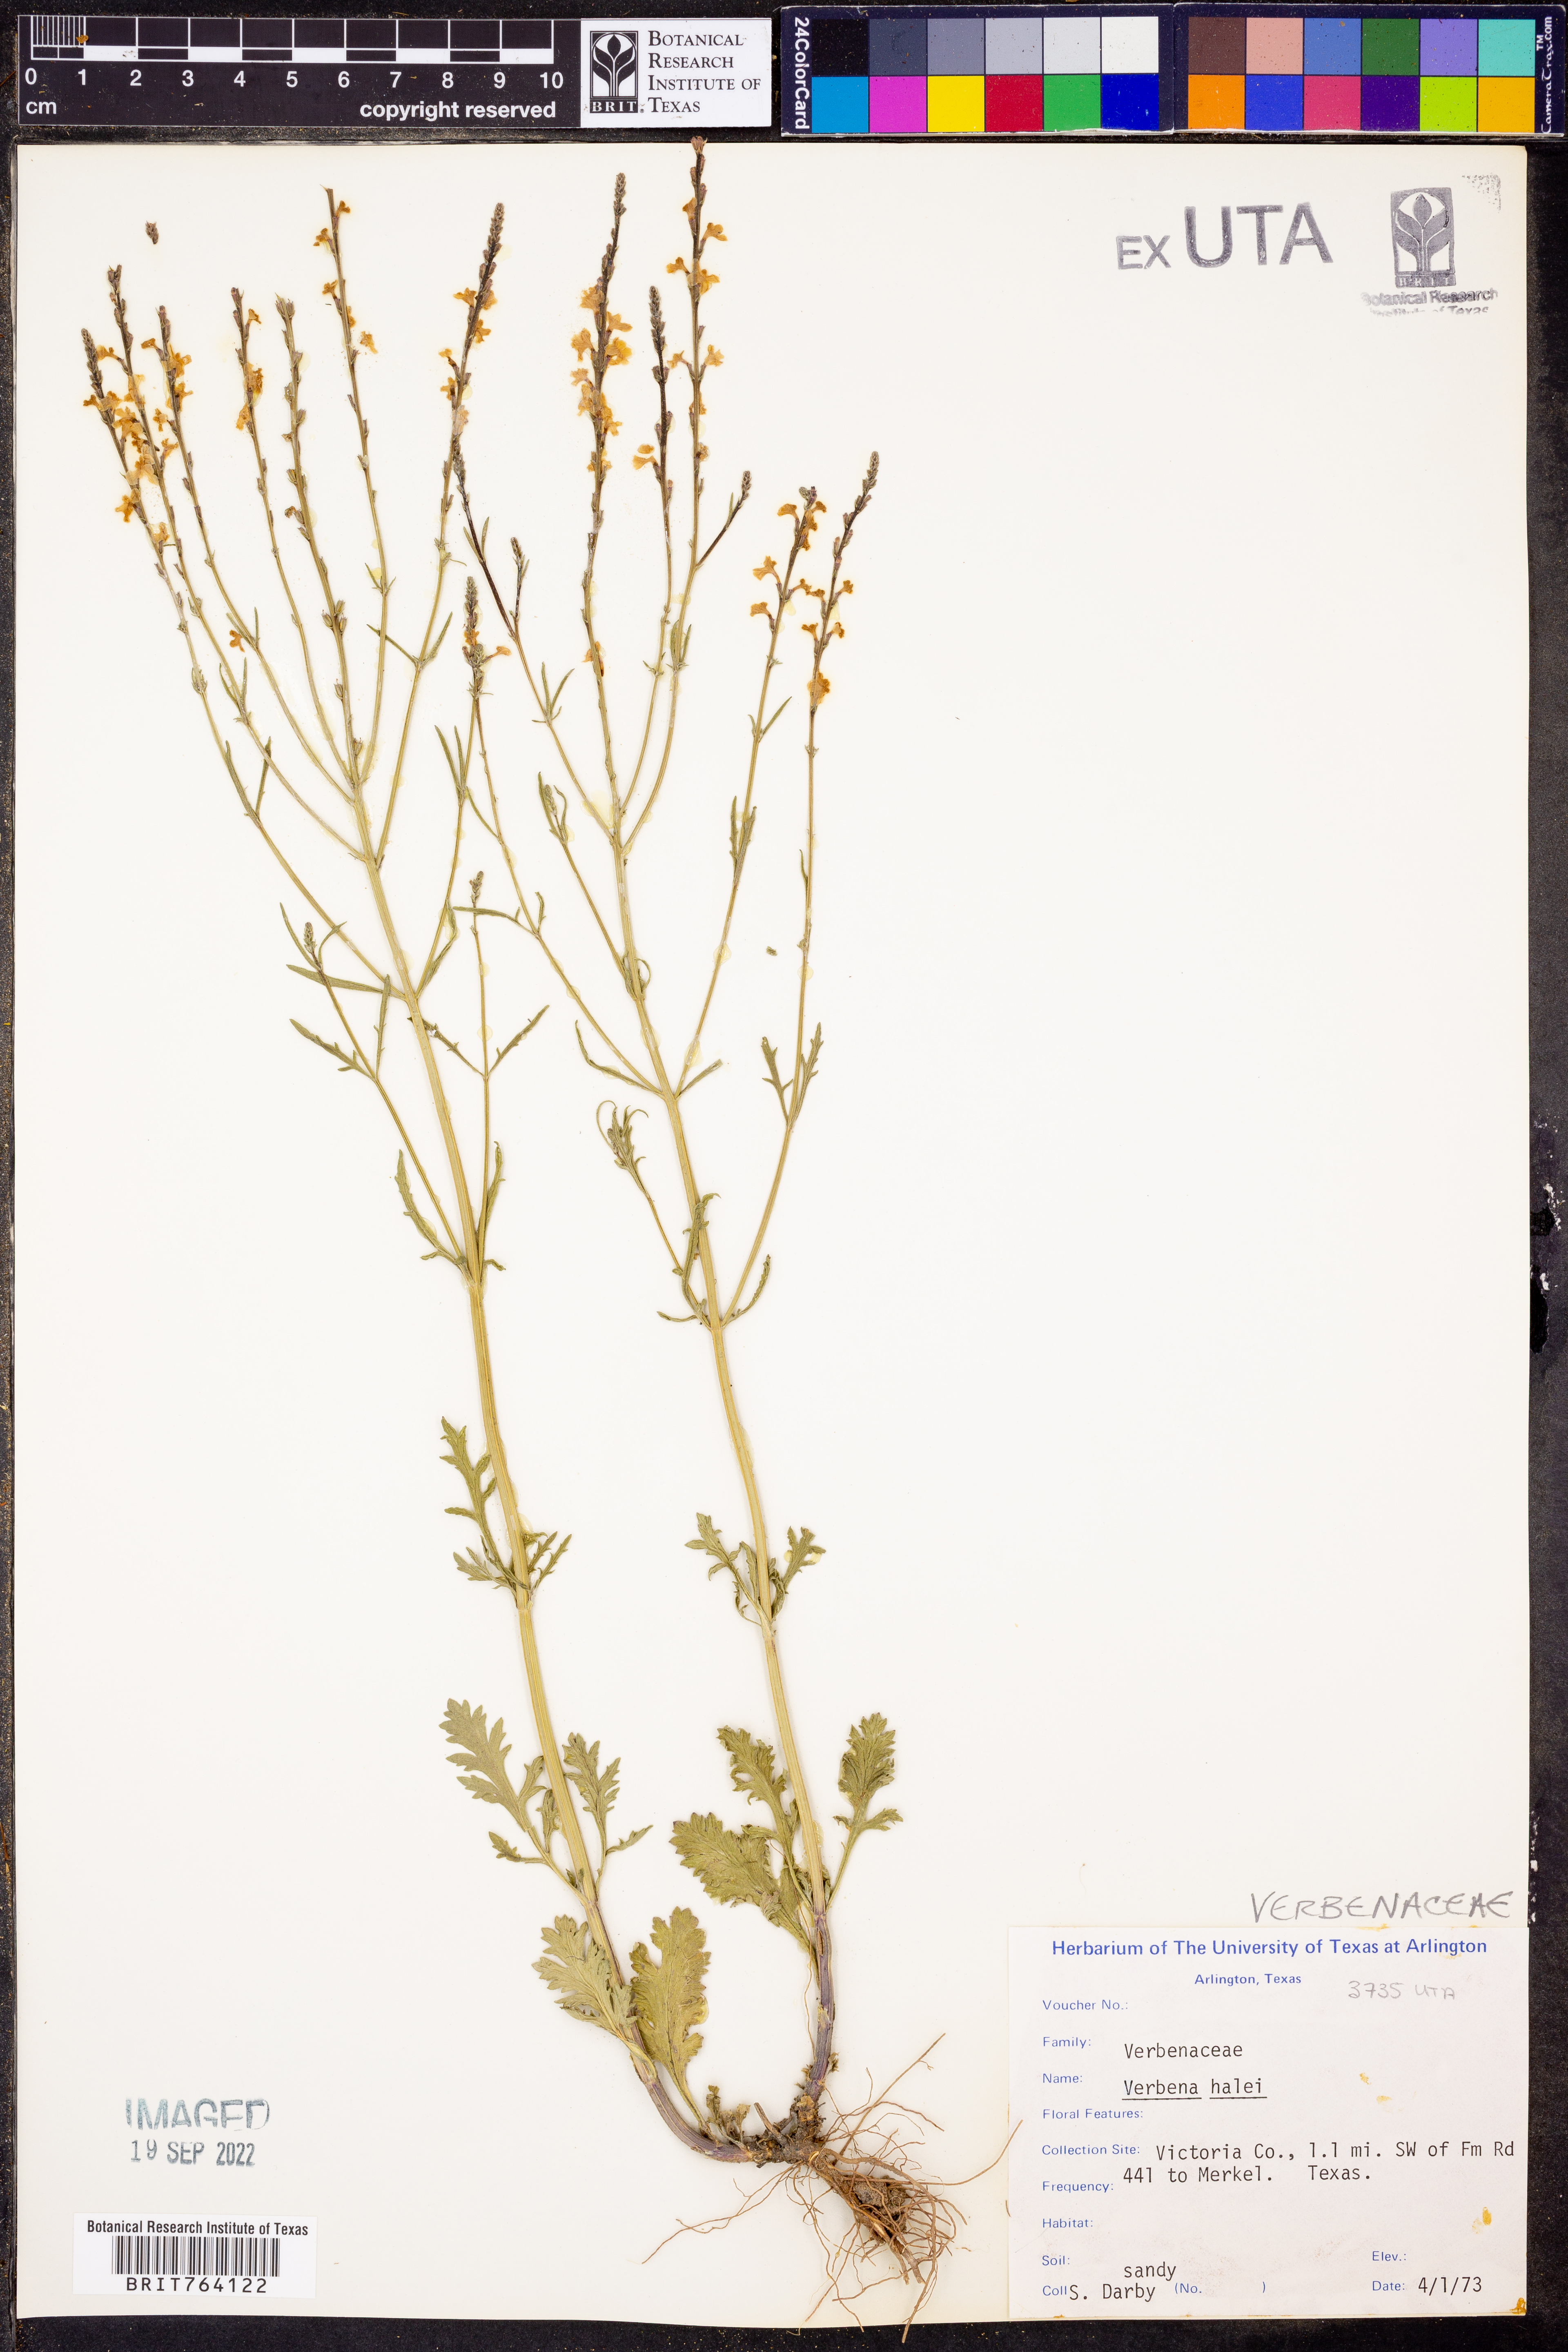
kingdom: Plantae
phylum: Tracheophyta
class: Magnoliopsida
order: Lamiales
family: Verbenaceae
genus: Verbena
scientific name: Verbena halei
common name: Texas vervain
